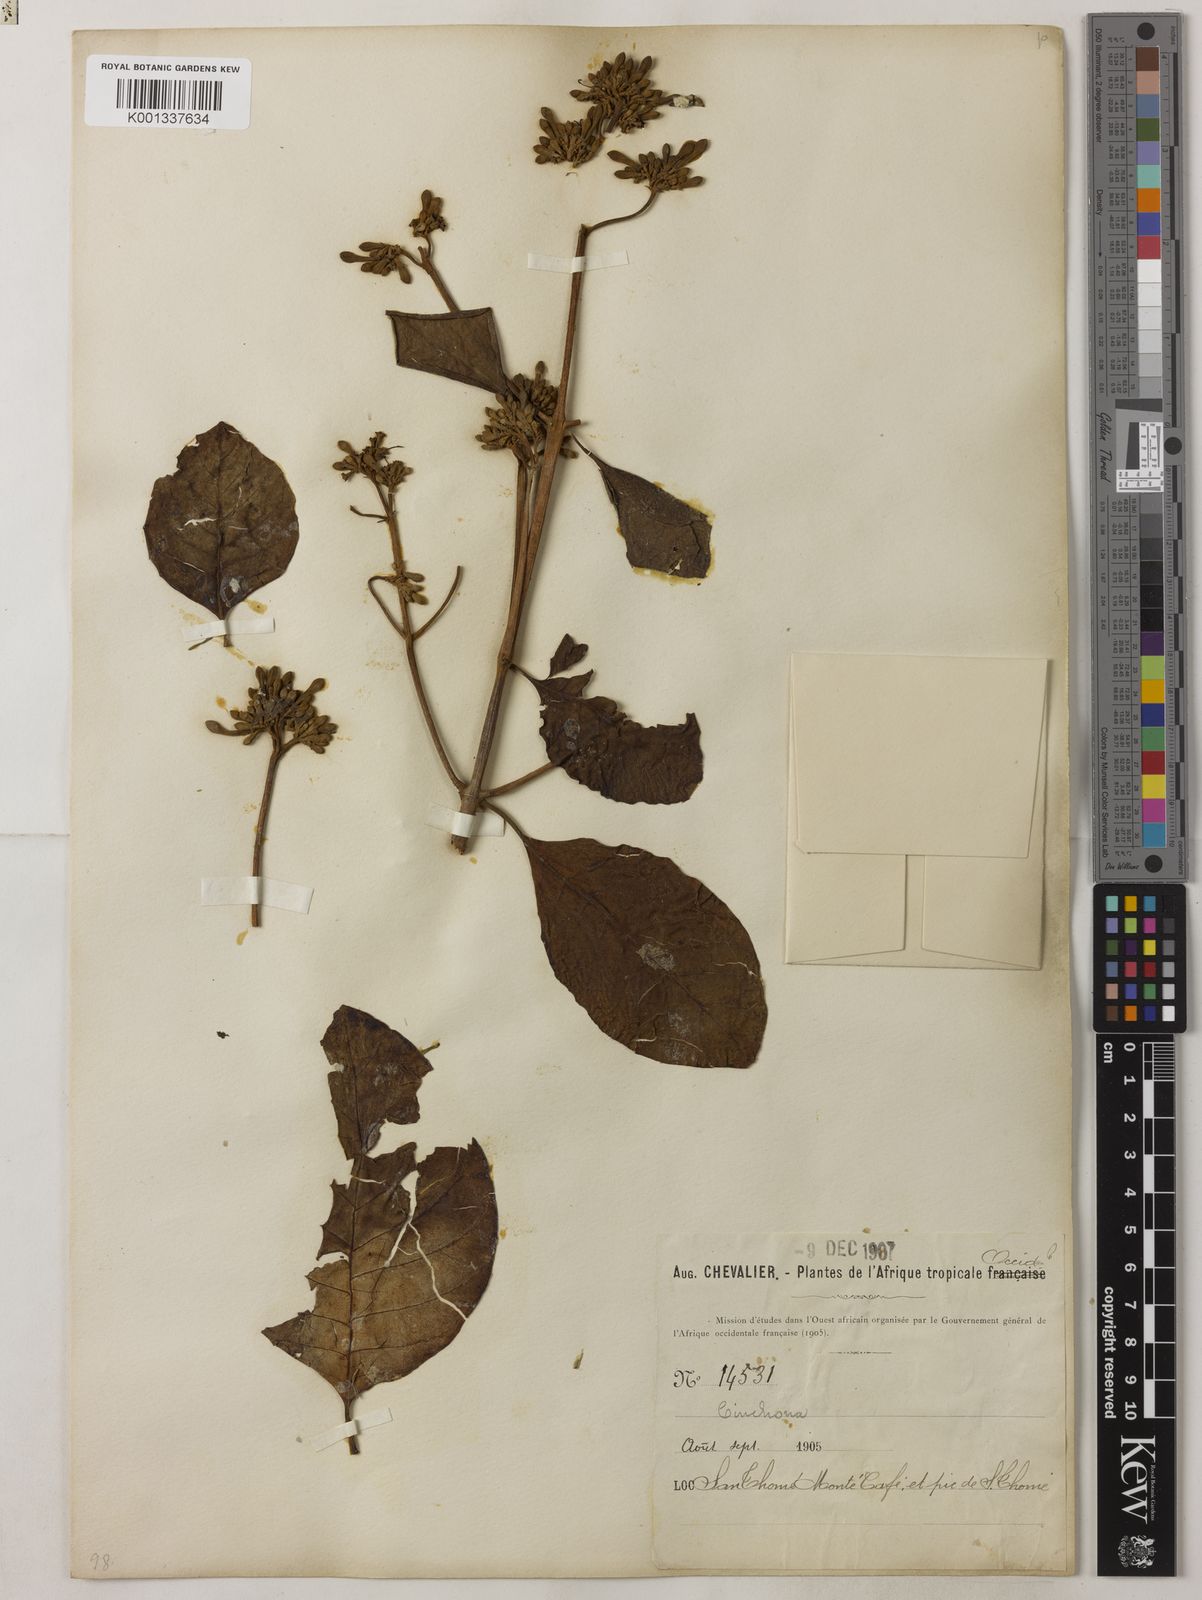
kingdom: Plantae
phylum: Tracheophyta
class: Magnoliopsida
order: Gentianales
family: Rubiaceae
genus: Cinchona
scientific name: Cinchona pubescens
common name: Quinine
